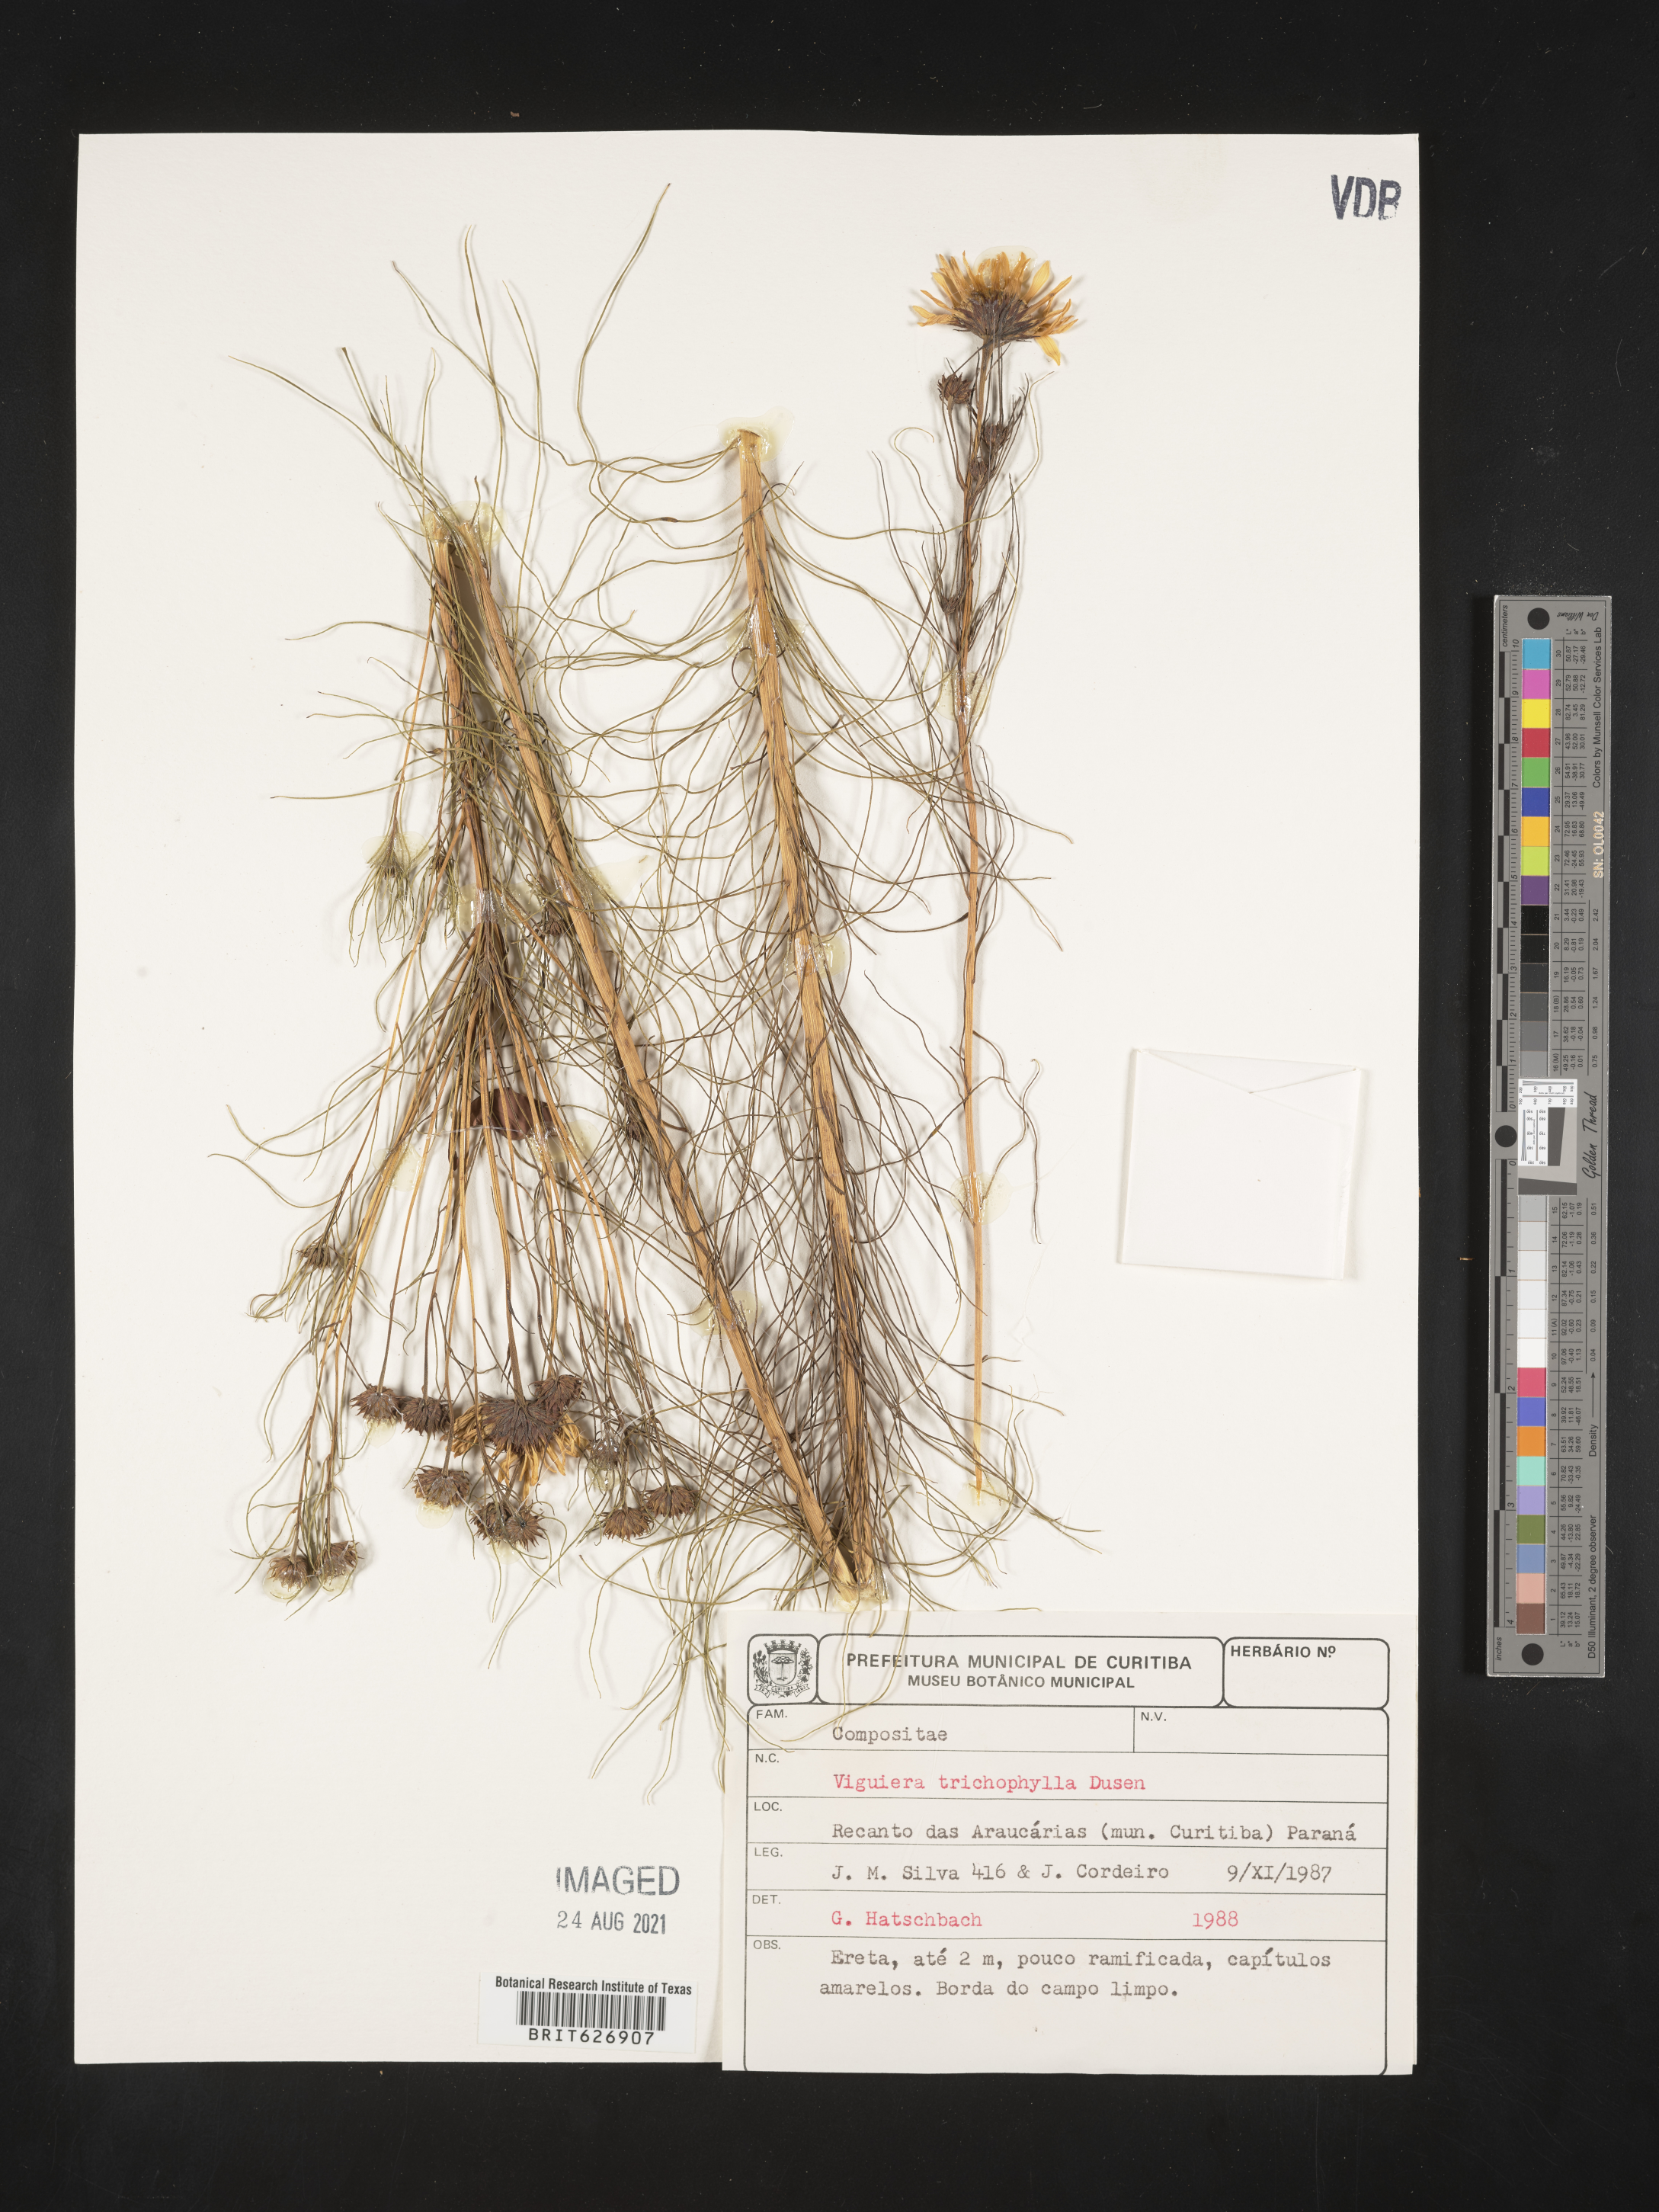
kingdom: Plantae
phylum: Tracheophyta
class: Magnoliopsida
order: Asterales
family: Asteraceae
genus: Aldama
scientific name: Aldama trichophylla
